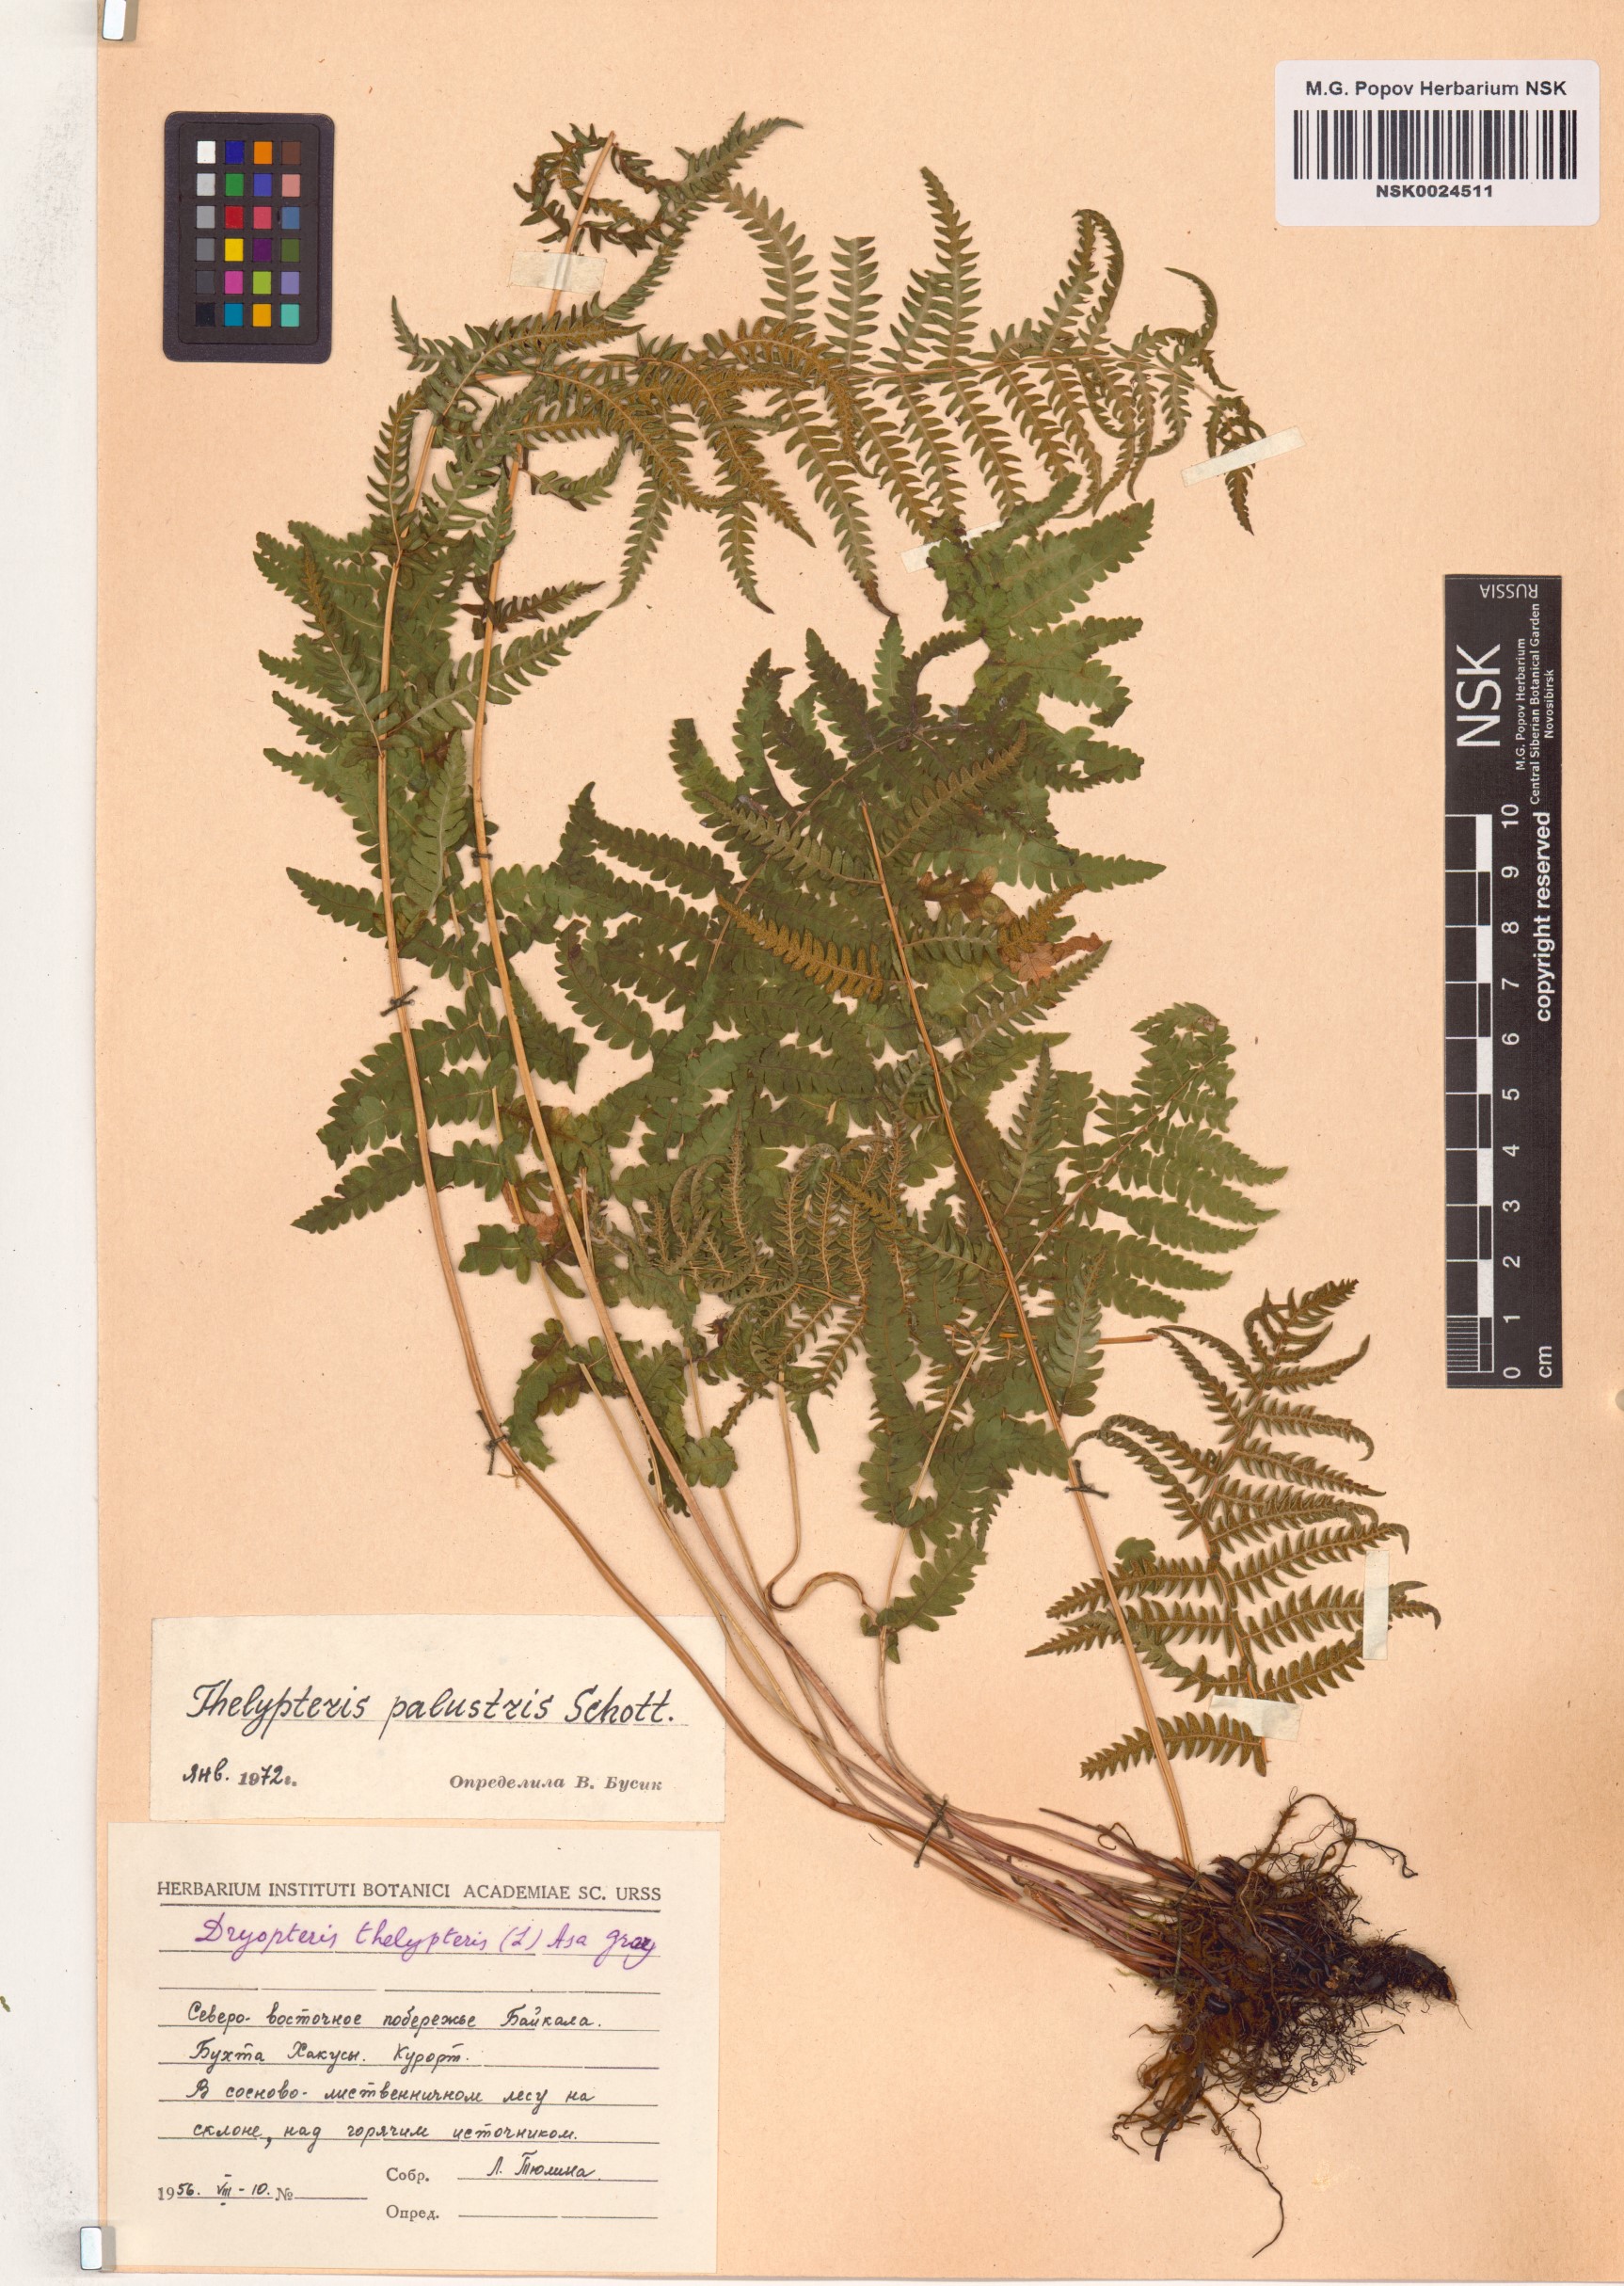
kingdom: Plantae
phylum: Tracheophyta
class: Polypodiopsida
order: Polypodiales
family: Thelypteridaceae
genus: Thelypteris
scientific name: Thelypteris palustris
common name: Marsh fern
